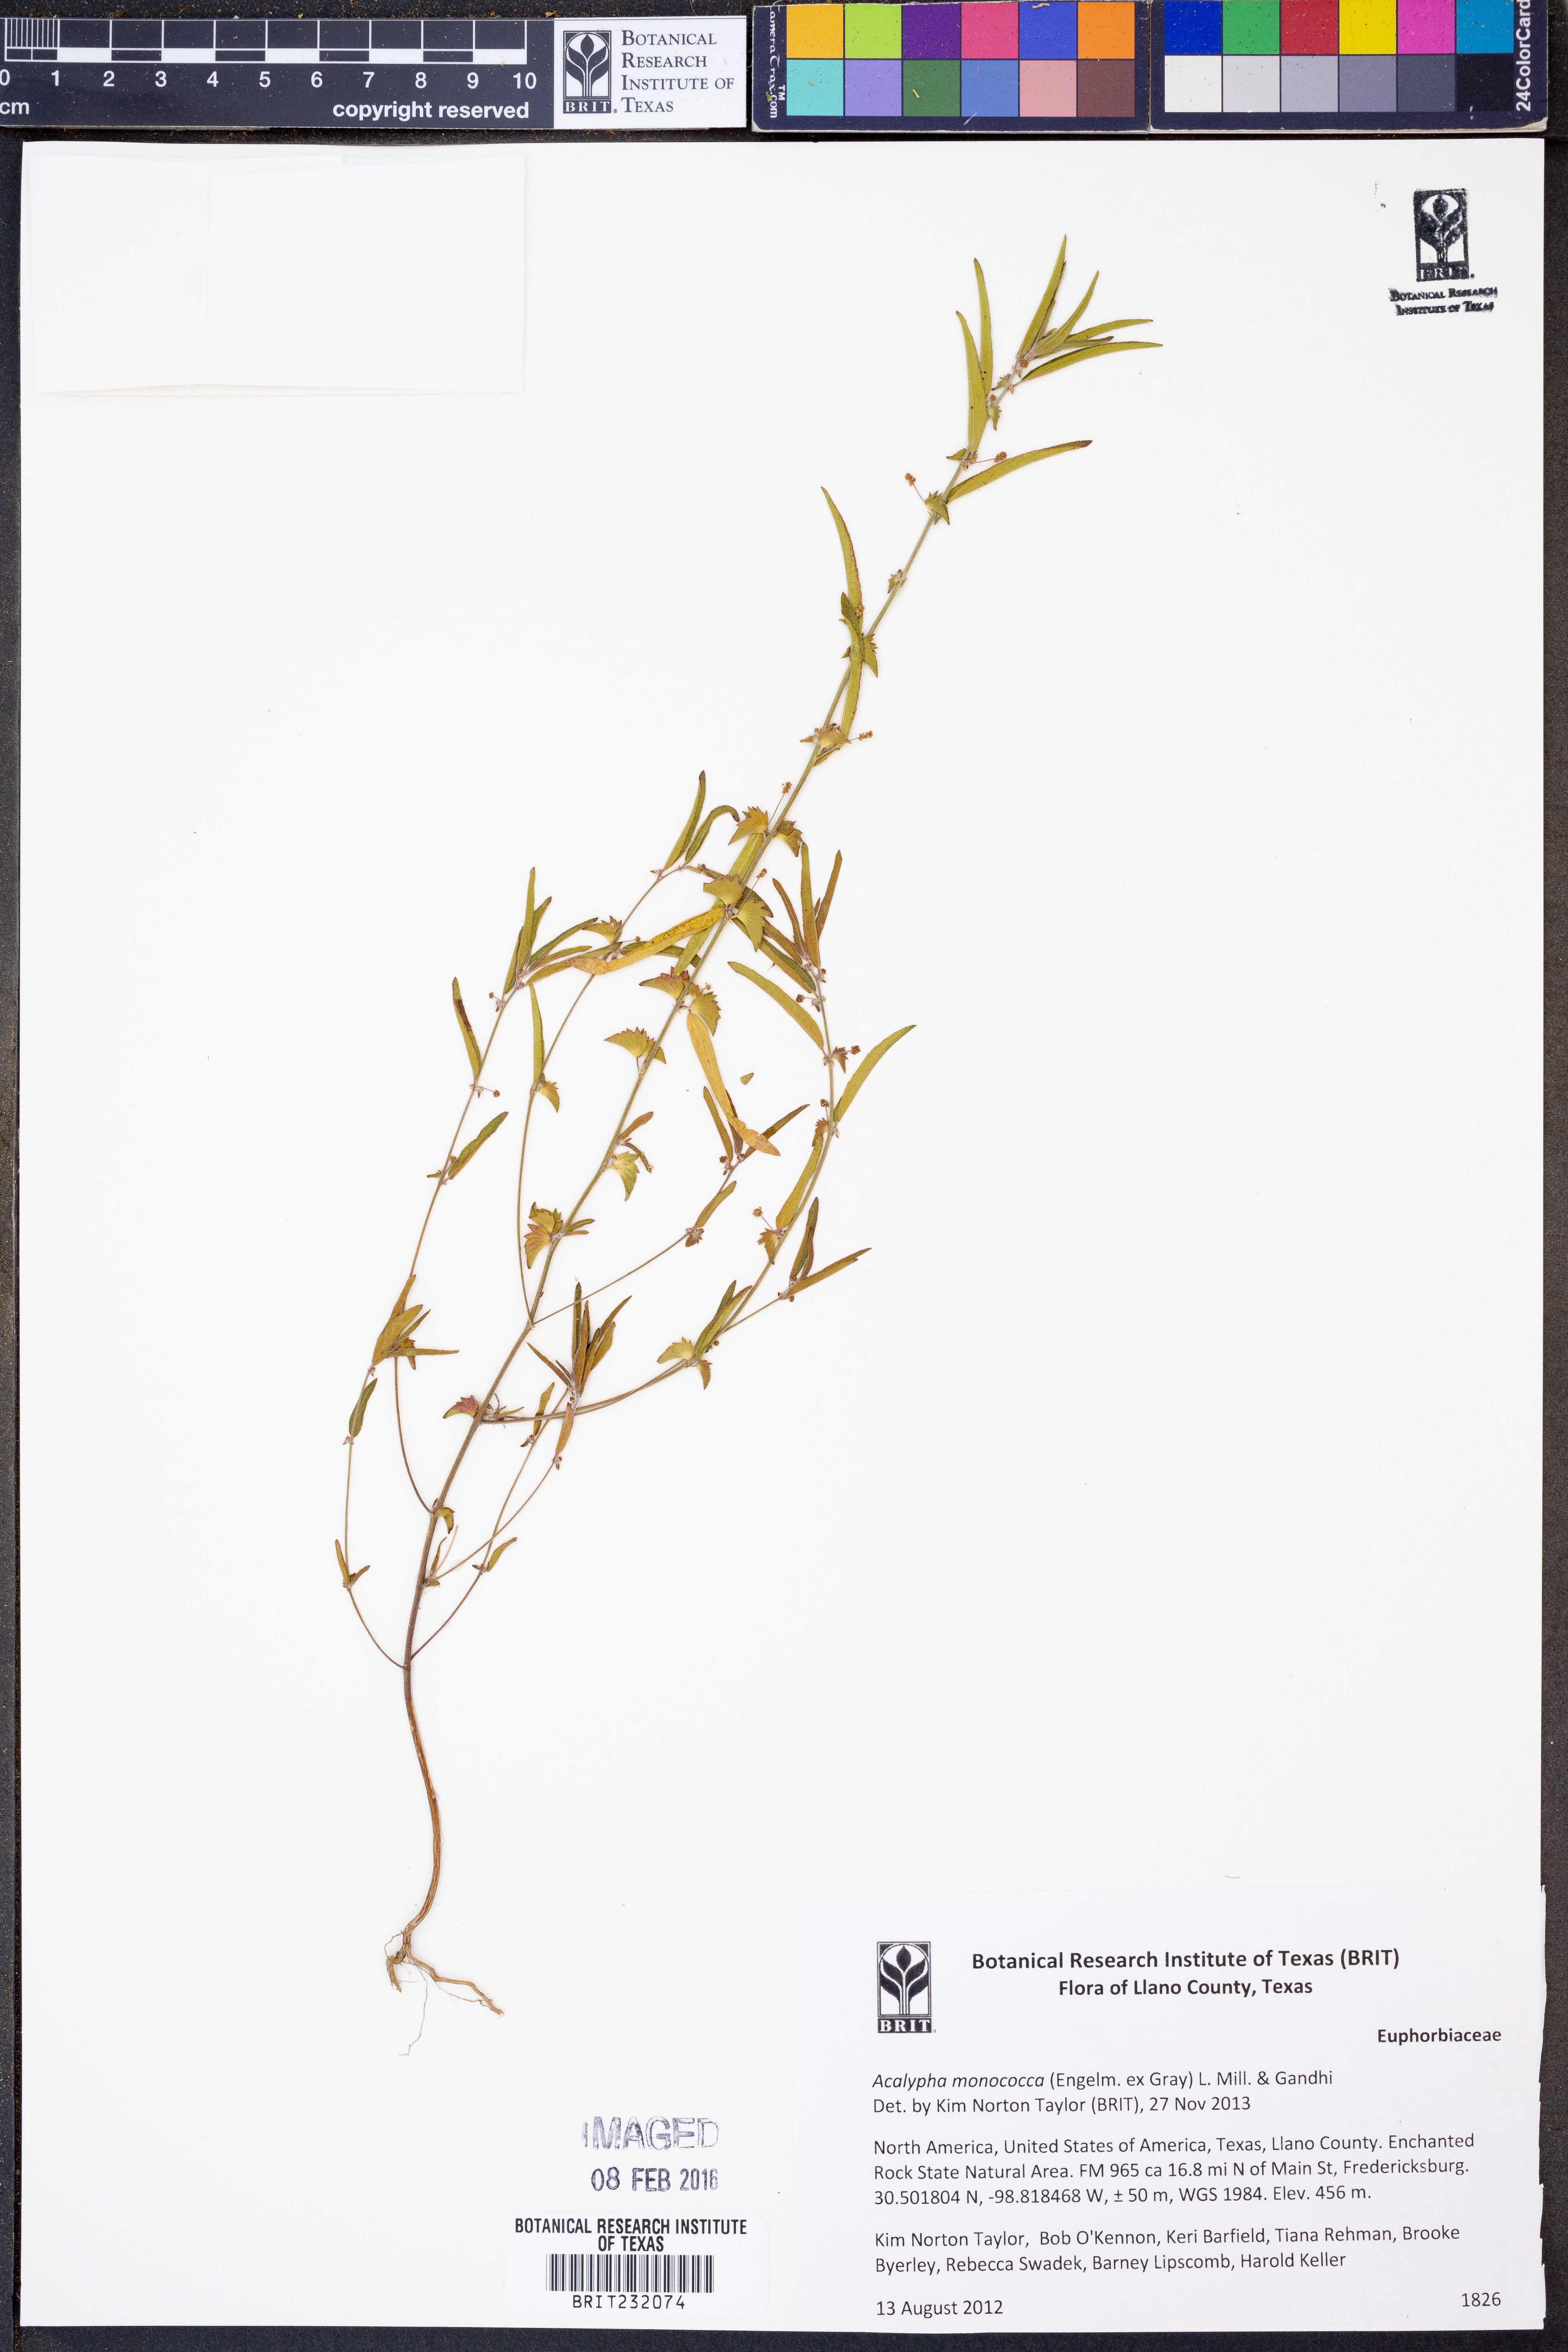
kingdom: Plantae
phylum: Tracheophyta
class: Magnoliopsida
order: Malpighiales
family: Euphorbiaceae
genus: Acalypha
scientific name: Acalypha monococca
